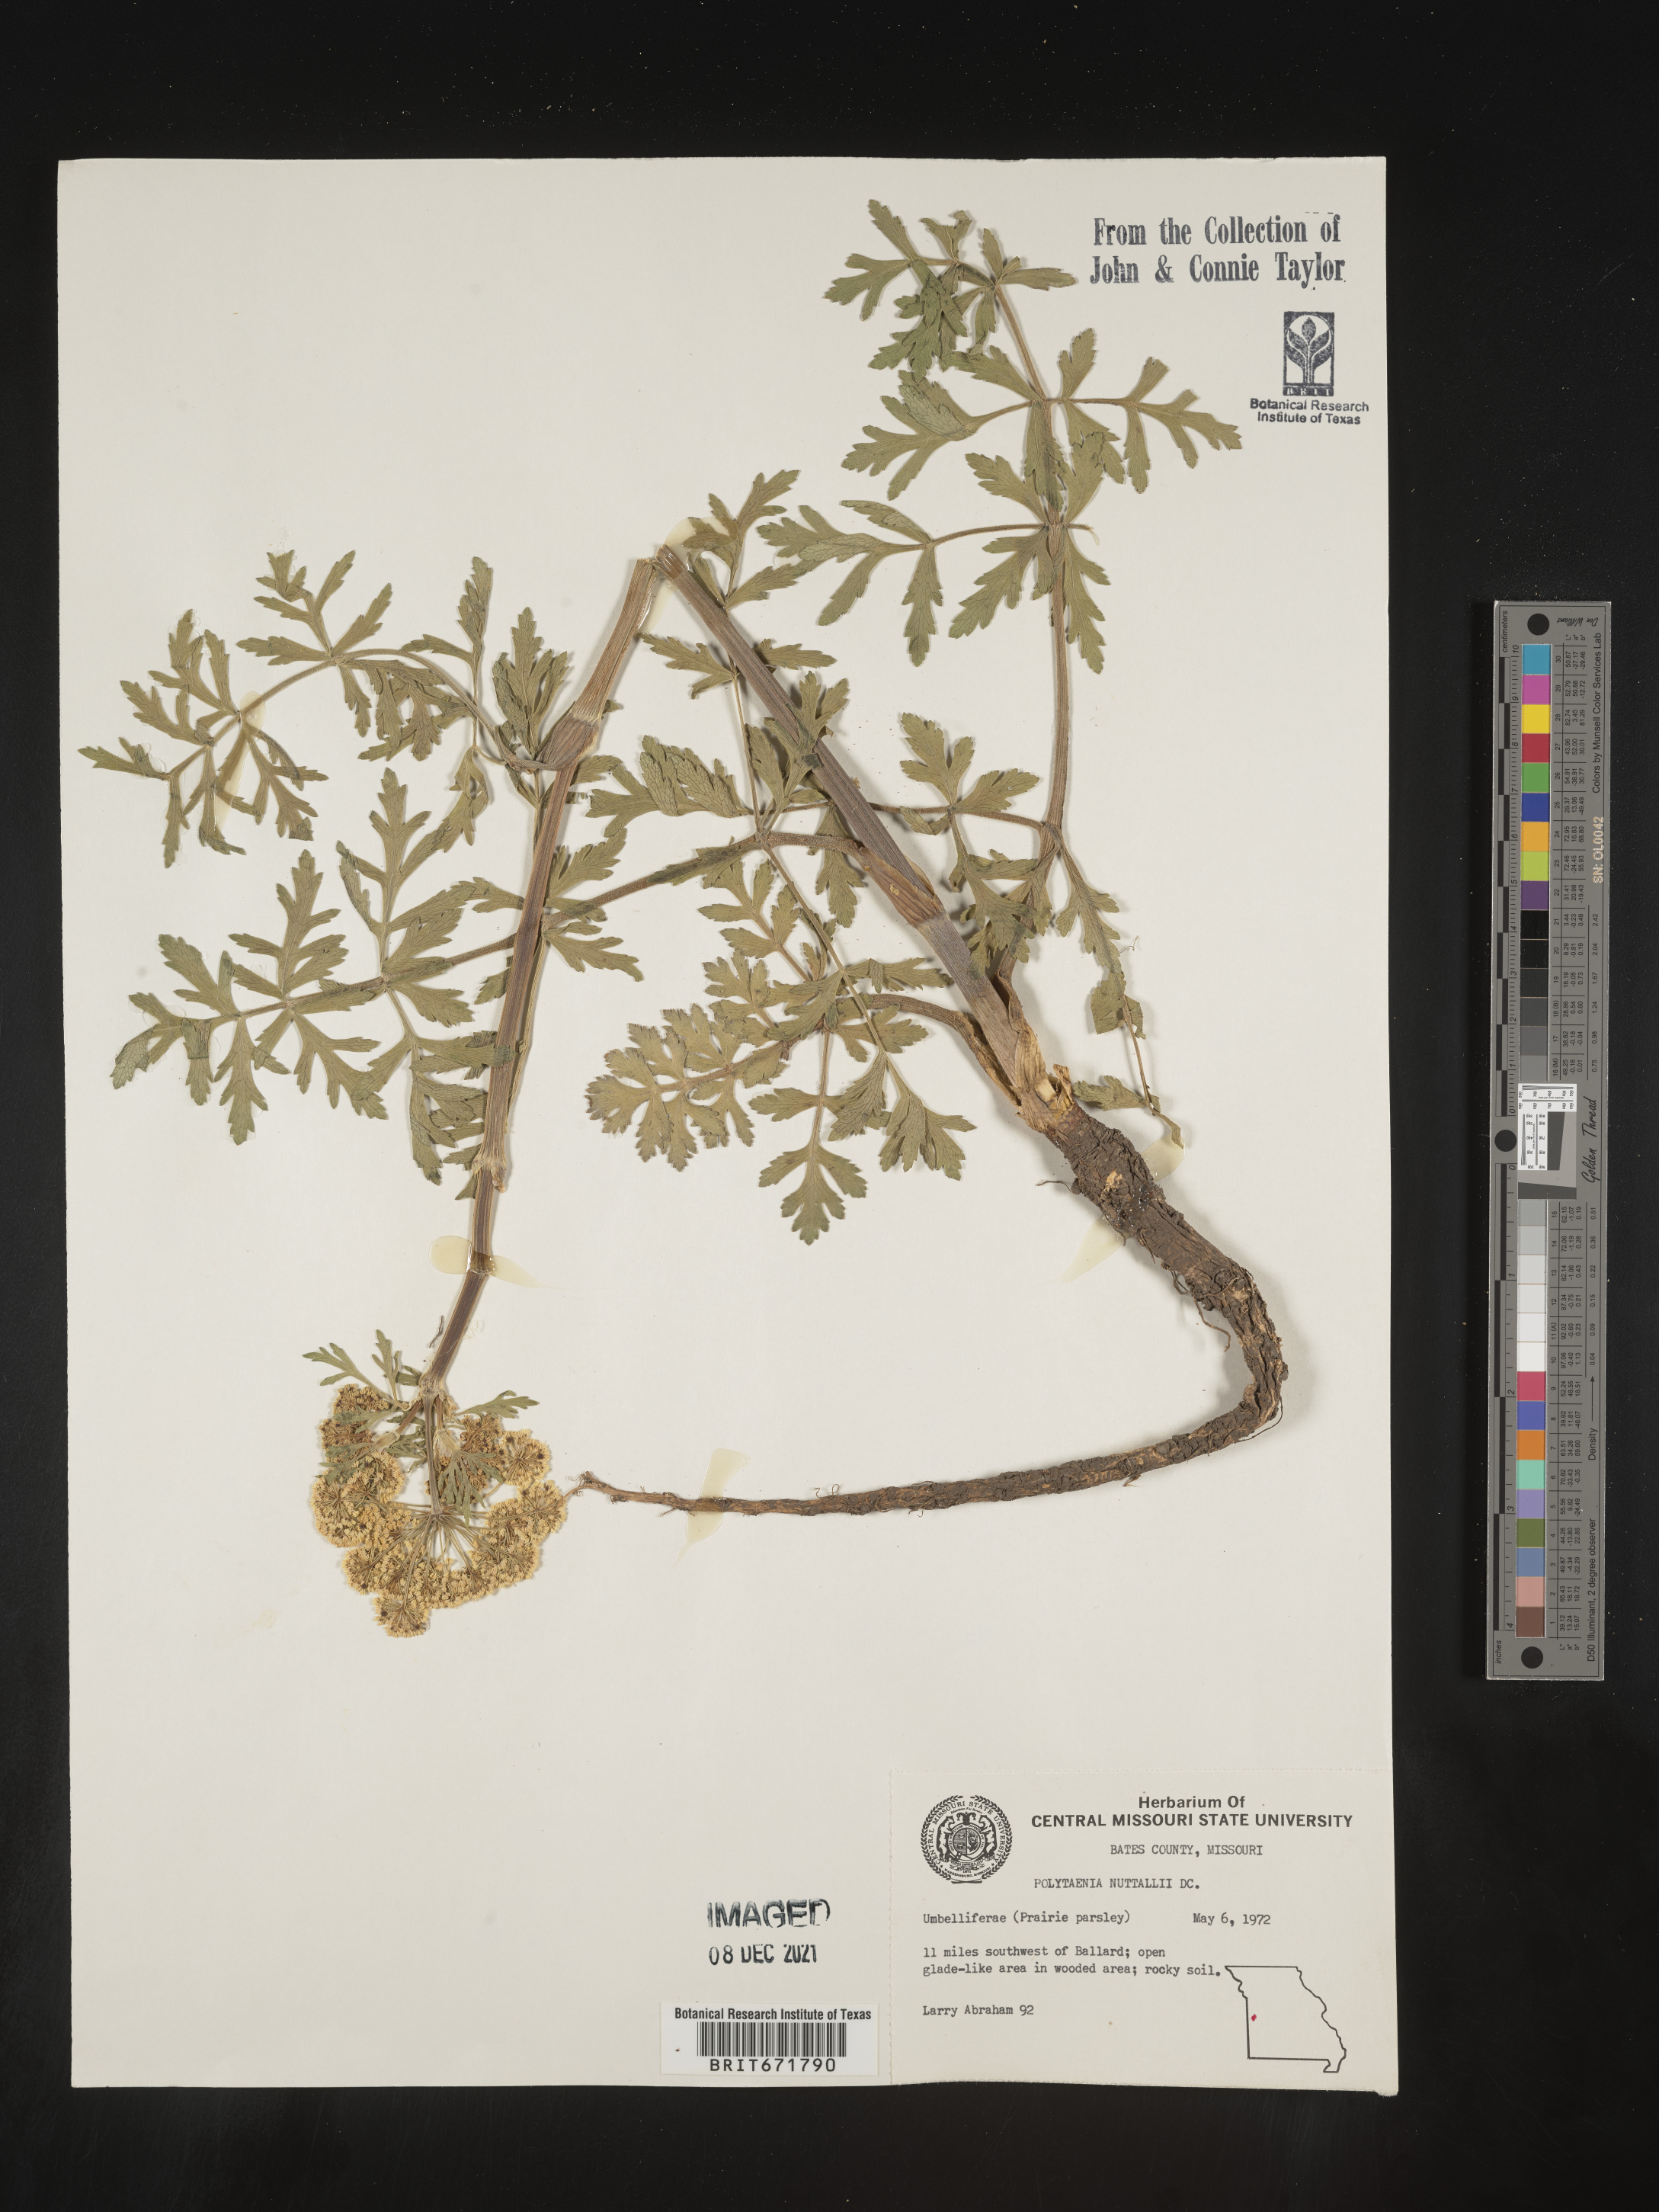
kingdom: Plantae
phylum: Tracheophyta
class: Magnoliopsida
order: Apiales
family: Apiaceae
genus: Polytaenia
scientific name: Polytaenia nuttallii
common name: Prairie-parsley
